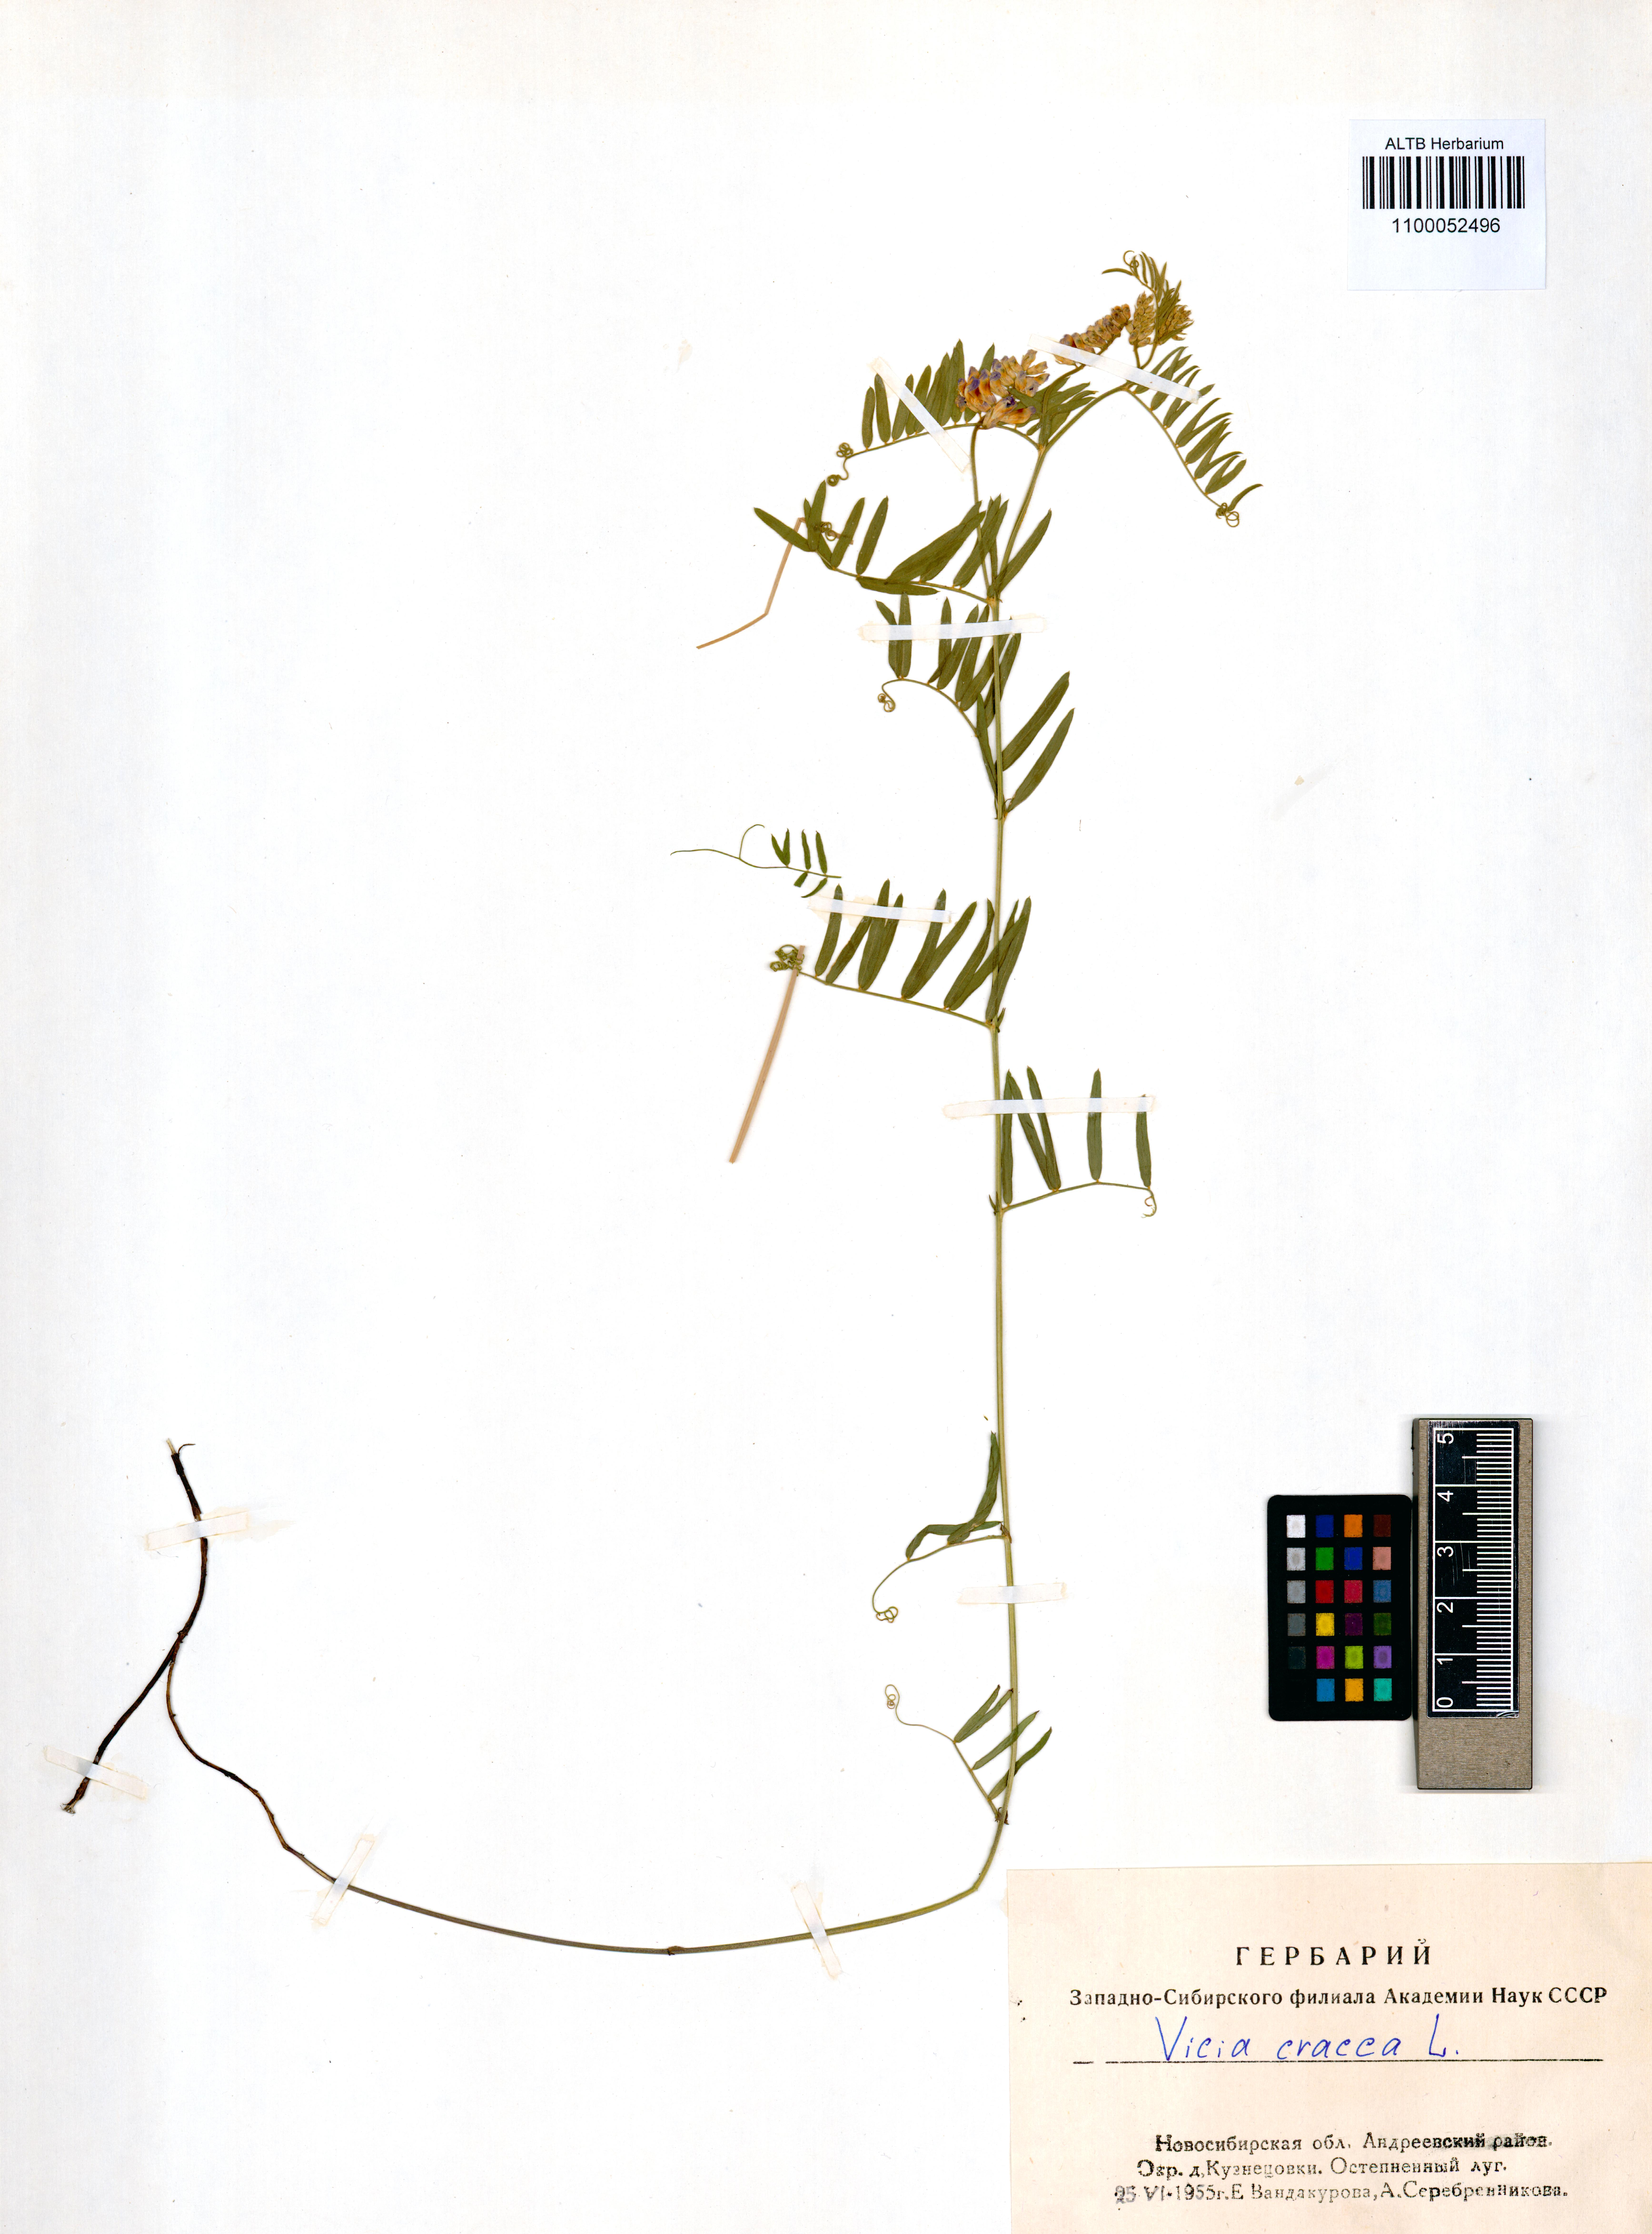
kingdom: Plantae
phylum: Tracheophyta
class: Magnoliopsida
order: Fabales
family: Fabaceae
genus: Vicia
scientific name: Vicia cracca
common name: Bird vetch
